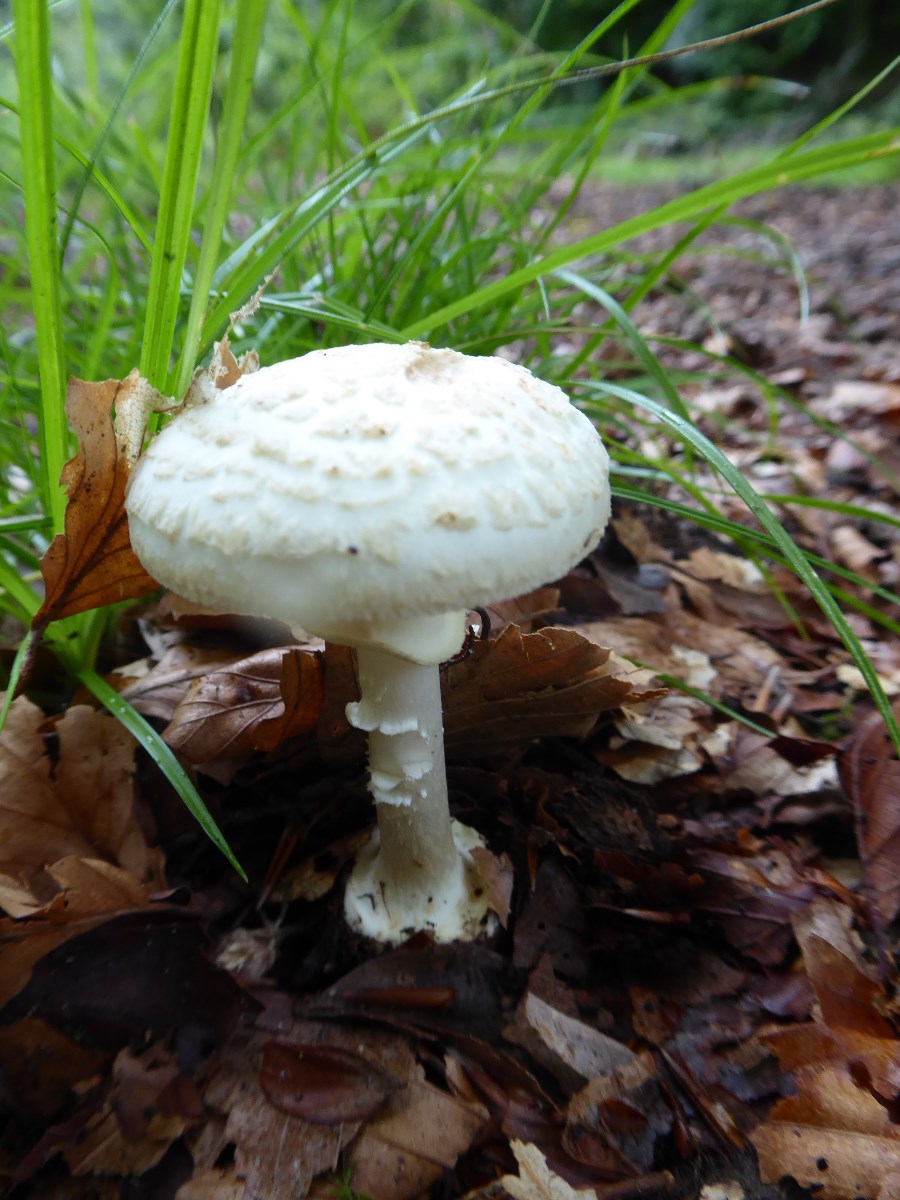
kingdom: Fungi
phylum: Basidiomycota
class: Agaricomycetes
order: Agaricales
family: Amanitaceae
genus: Amanita
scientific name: Amanita citrina
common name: False death-cap
